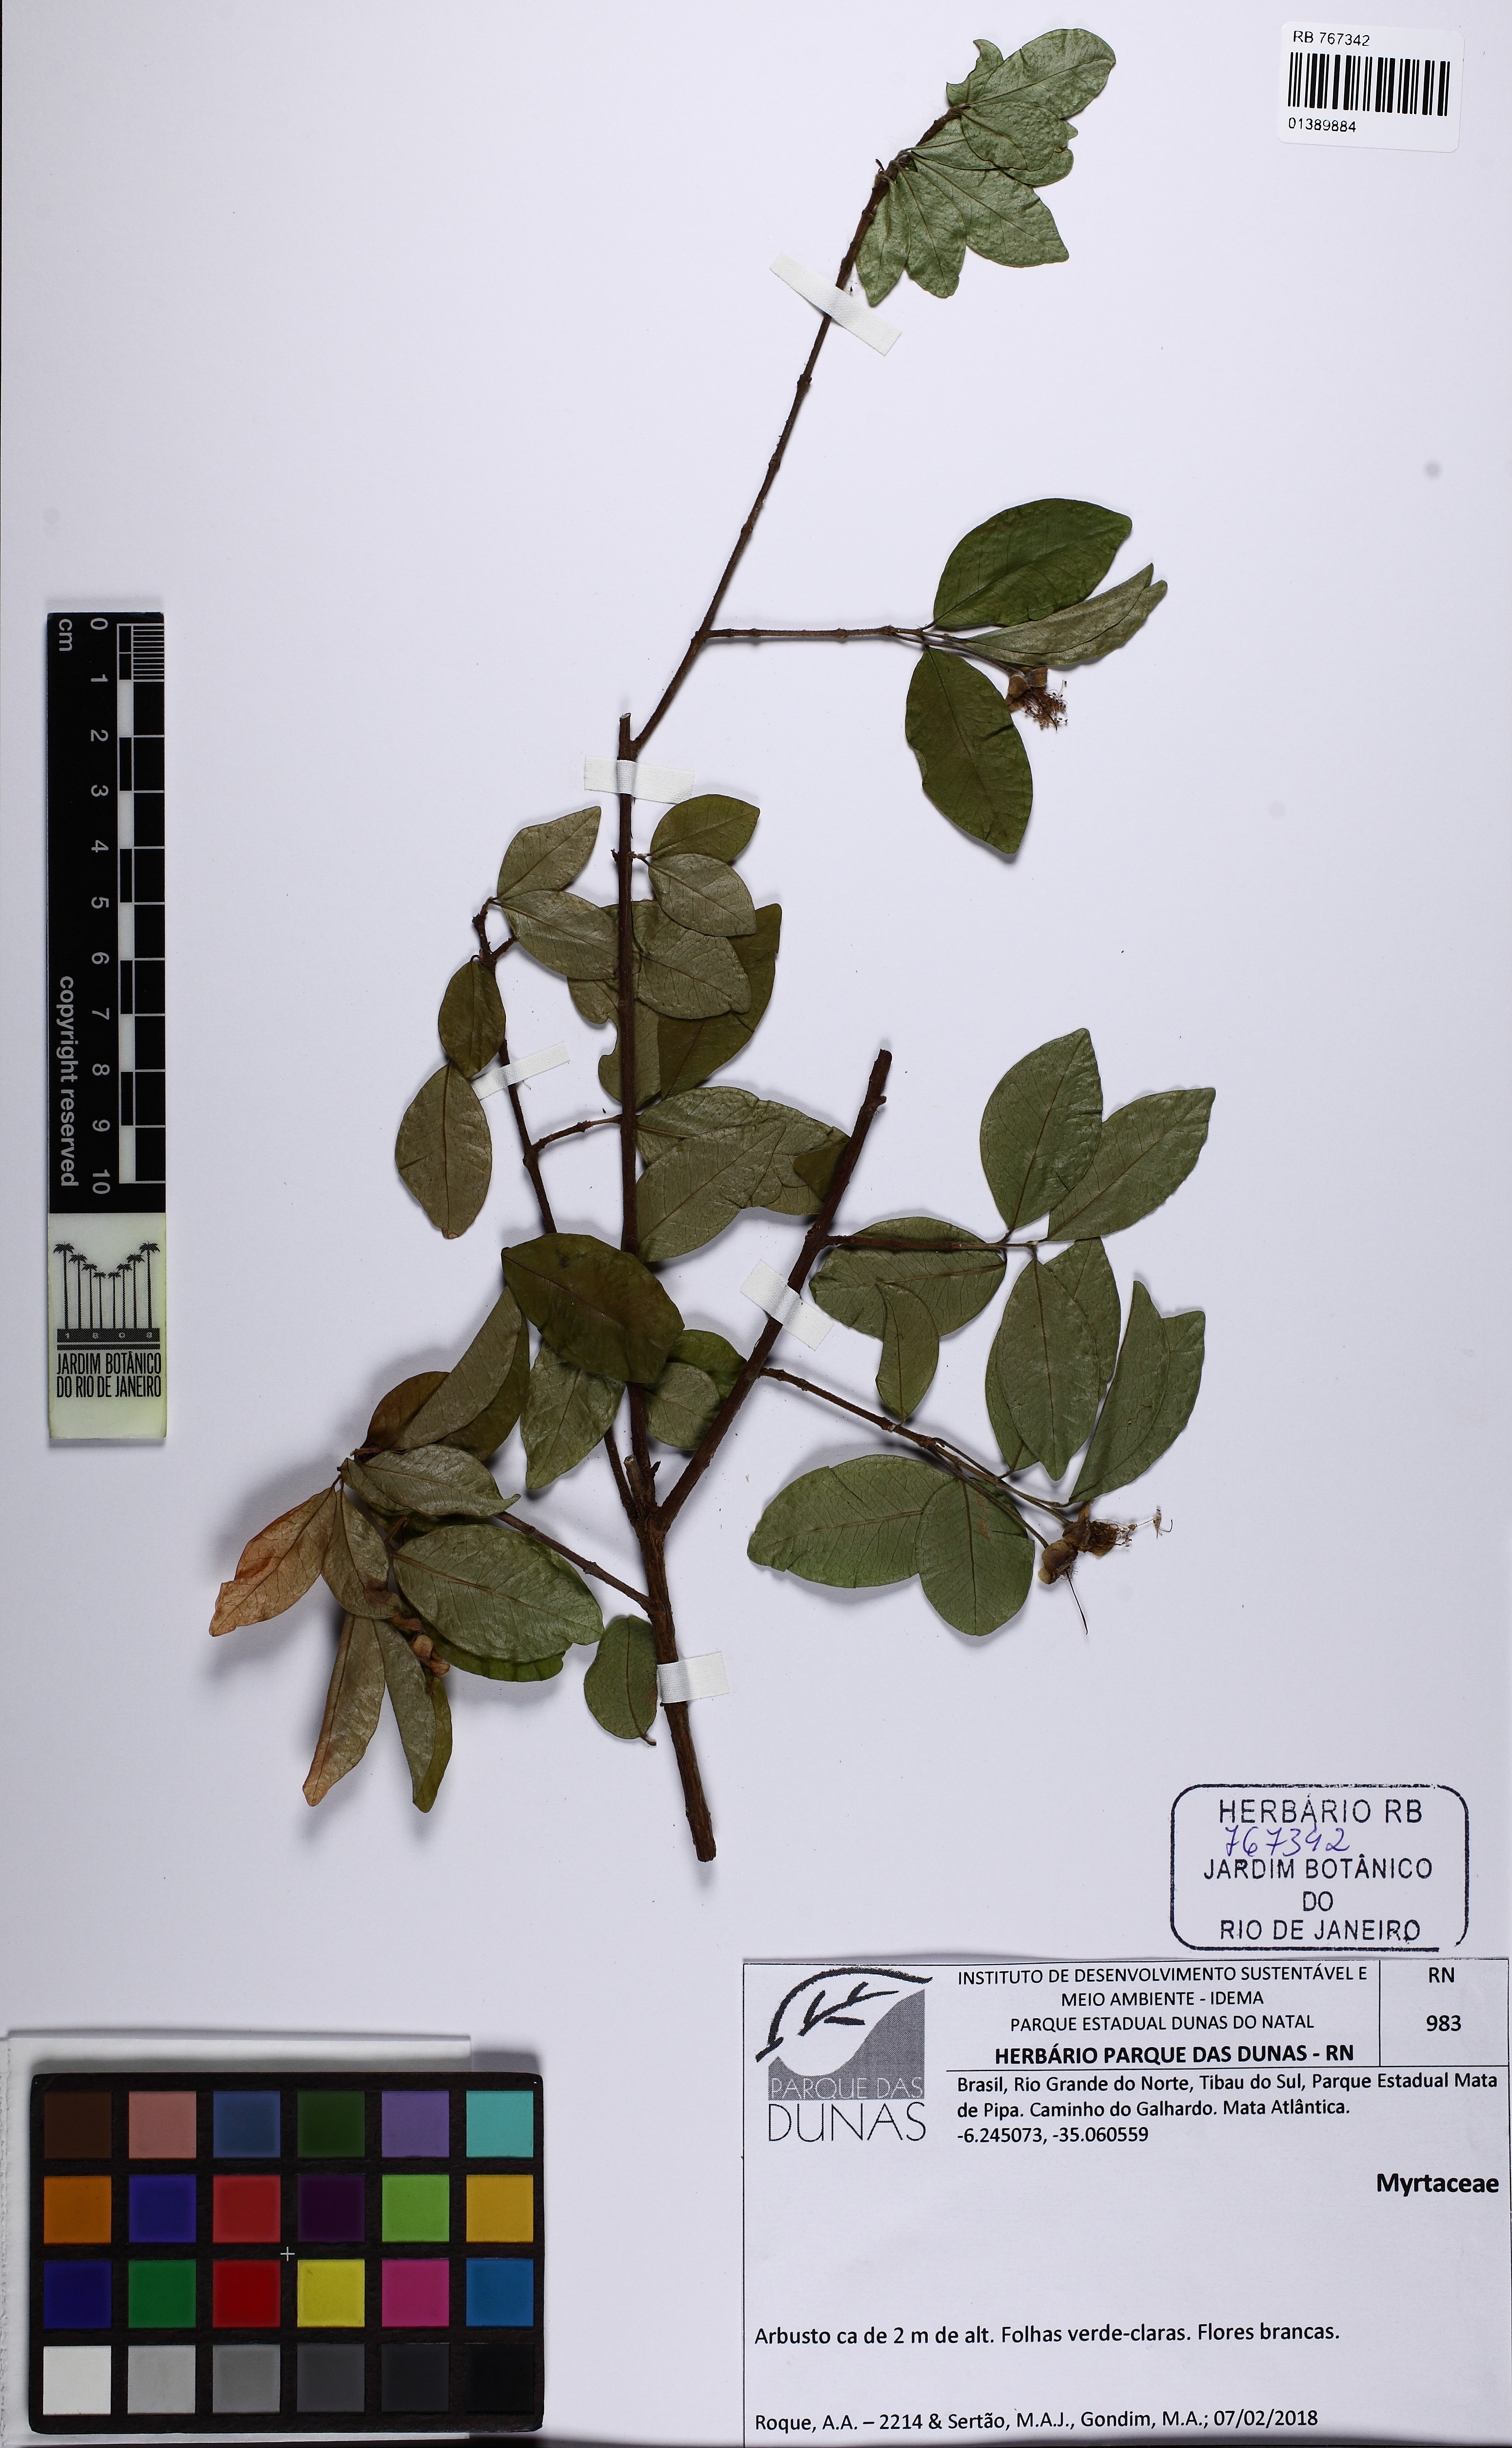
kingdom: Plantae
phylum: Tracheophyta
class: Magnoliopsida
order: Myrtales
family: Myrtaceae
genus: Eugenia
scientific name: Eugenia caipora
